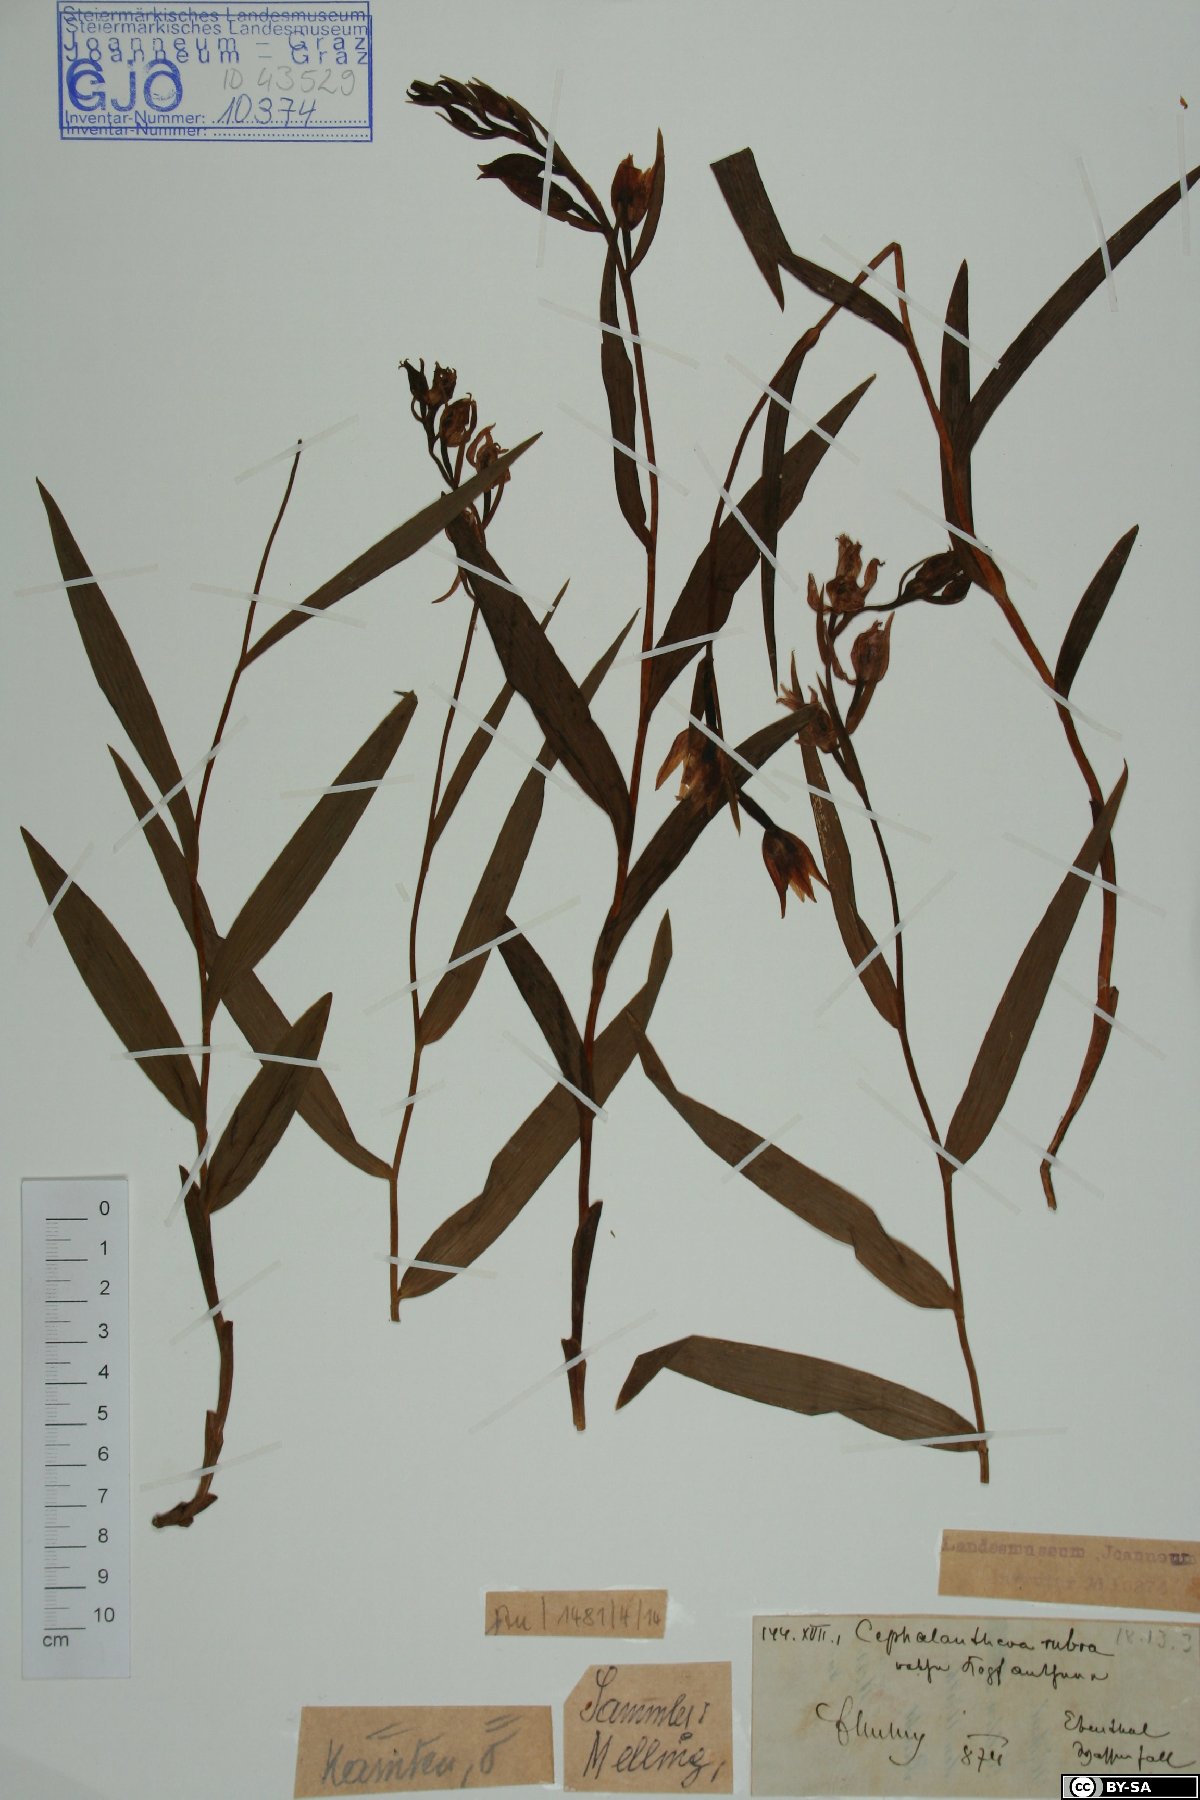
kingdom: Plantae
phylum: Tracheophyta
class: Liliopsida
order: Asparagales
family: Orchidaceae
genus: Cephalanthera
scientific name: Cephalanthera rubra
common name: Red helleborine
